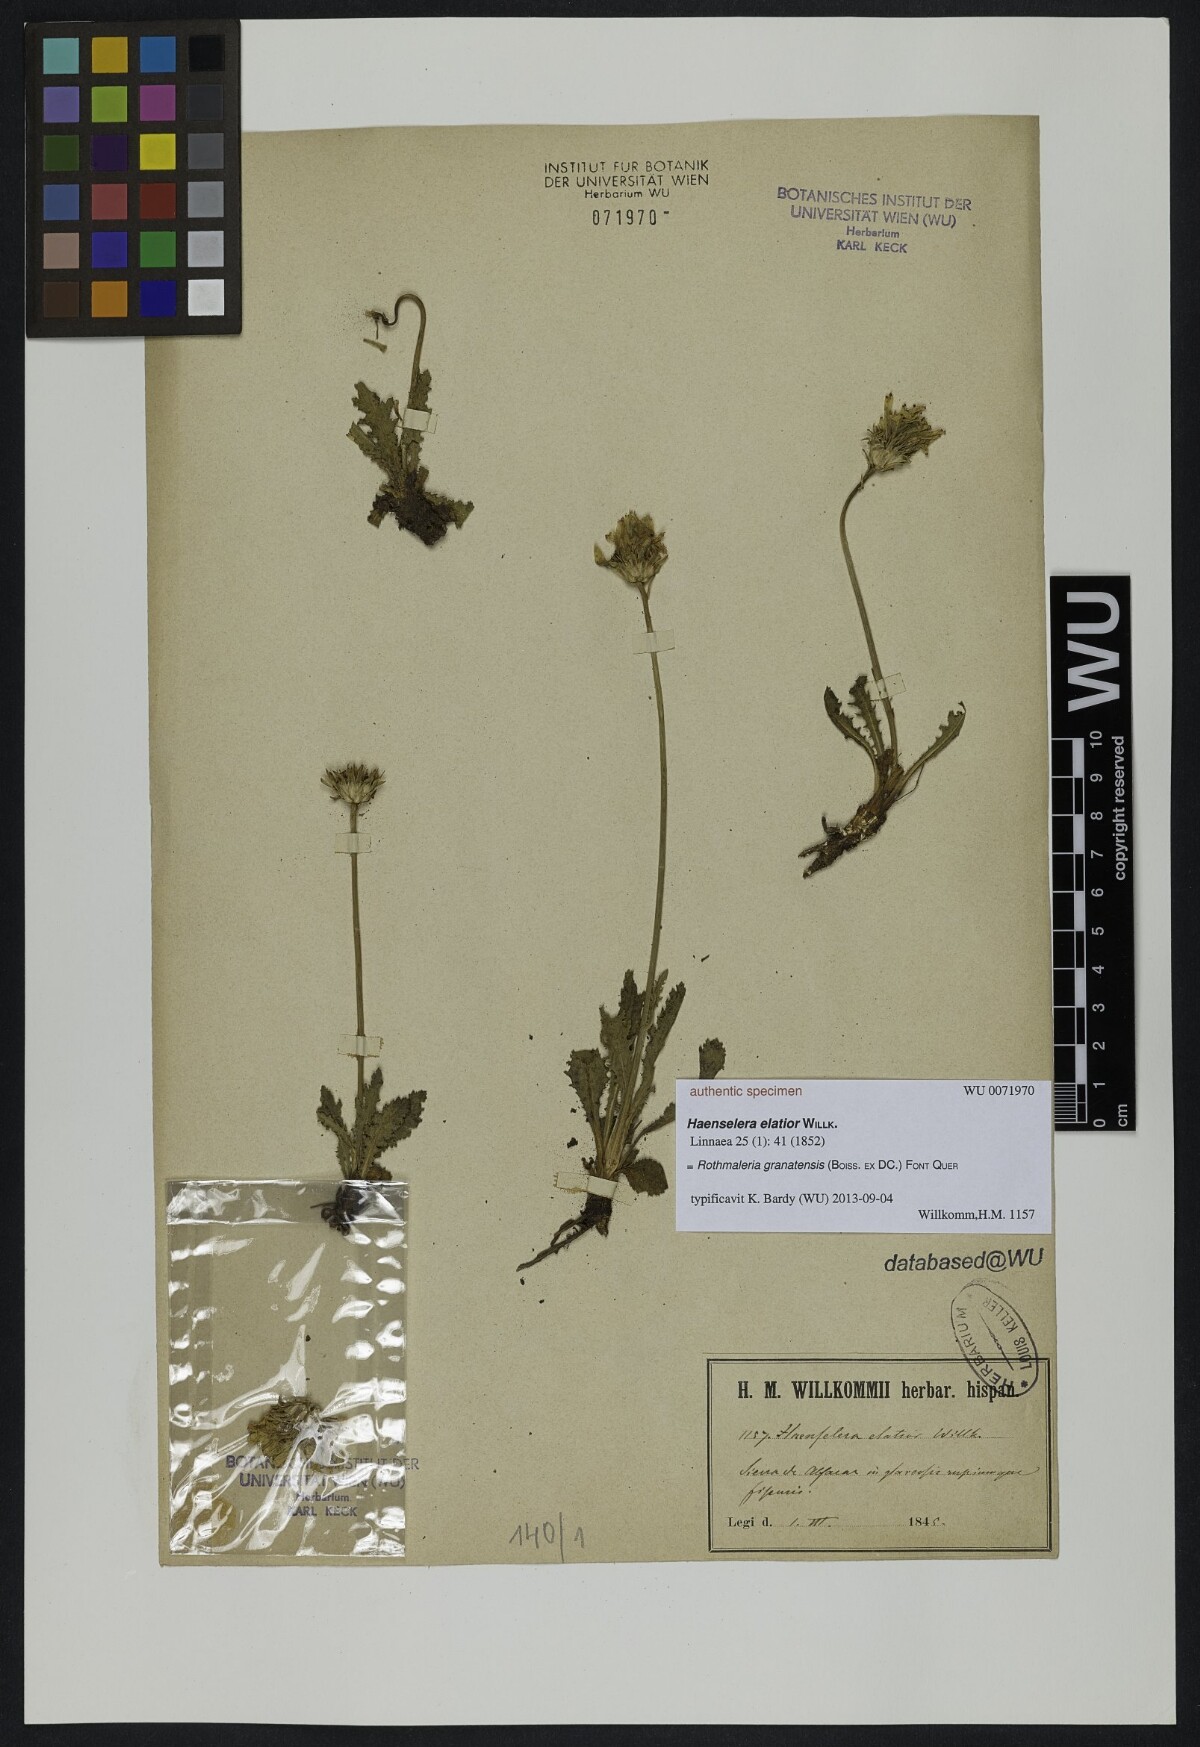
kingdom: Plantae
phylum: Tracheophyta
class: Magnoliopsida
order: Asterales
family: Asteraceae
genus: Rothmaleria
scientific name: Rothmaleria granatensis
